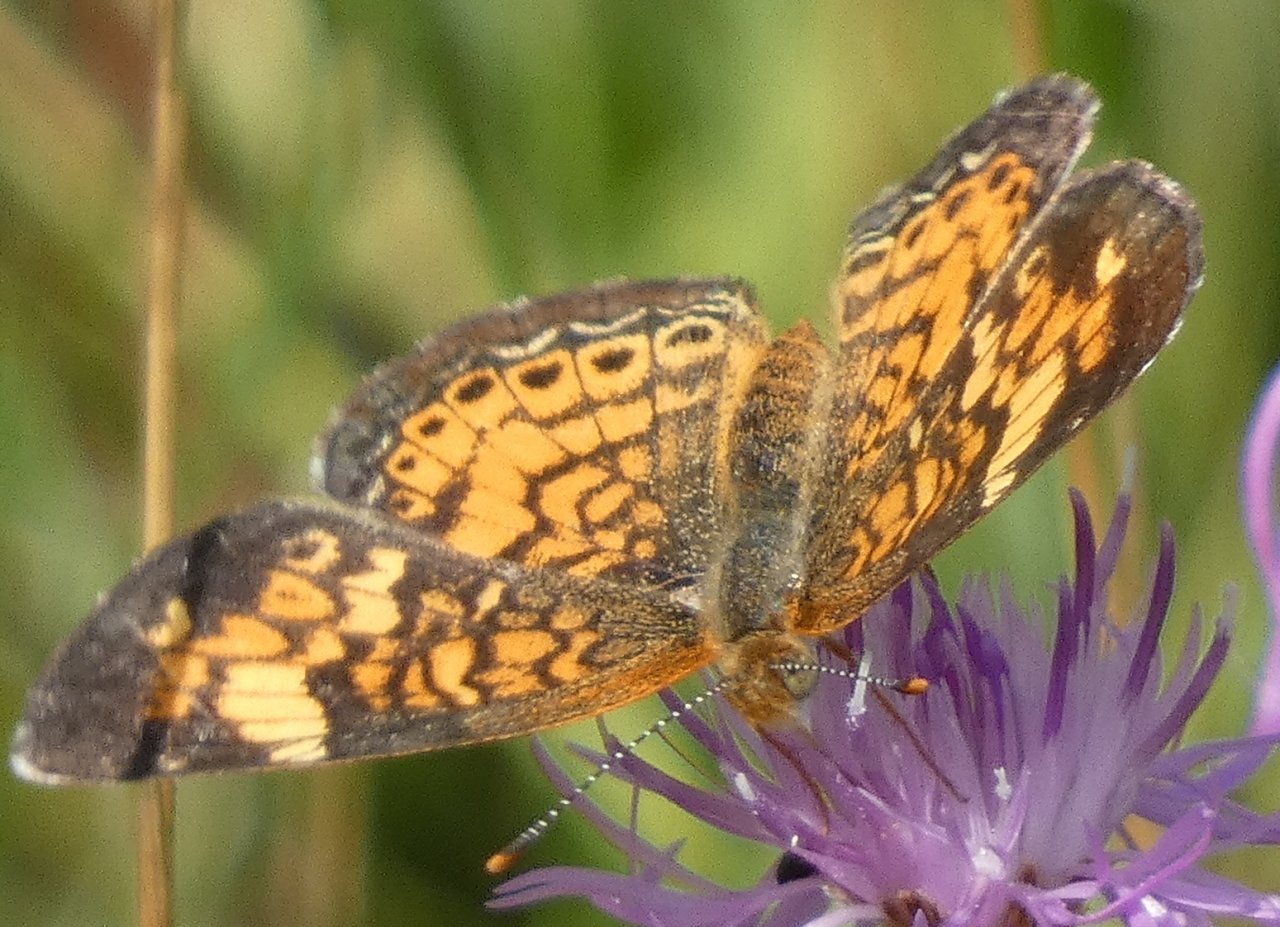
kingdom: Animalia
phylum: Arthropoda
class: Insecta
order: Lepidoptera
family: Nymphalidae
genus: Phyciodes
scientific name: Phyciodes tharos
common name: Pearl Crescent
